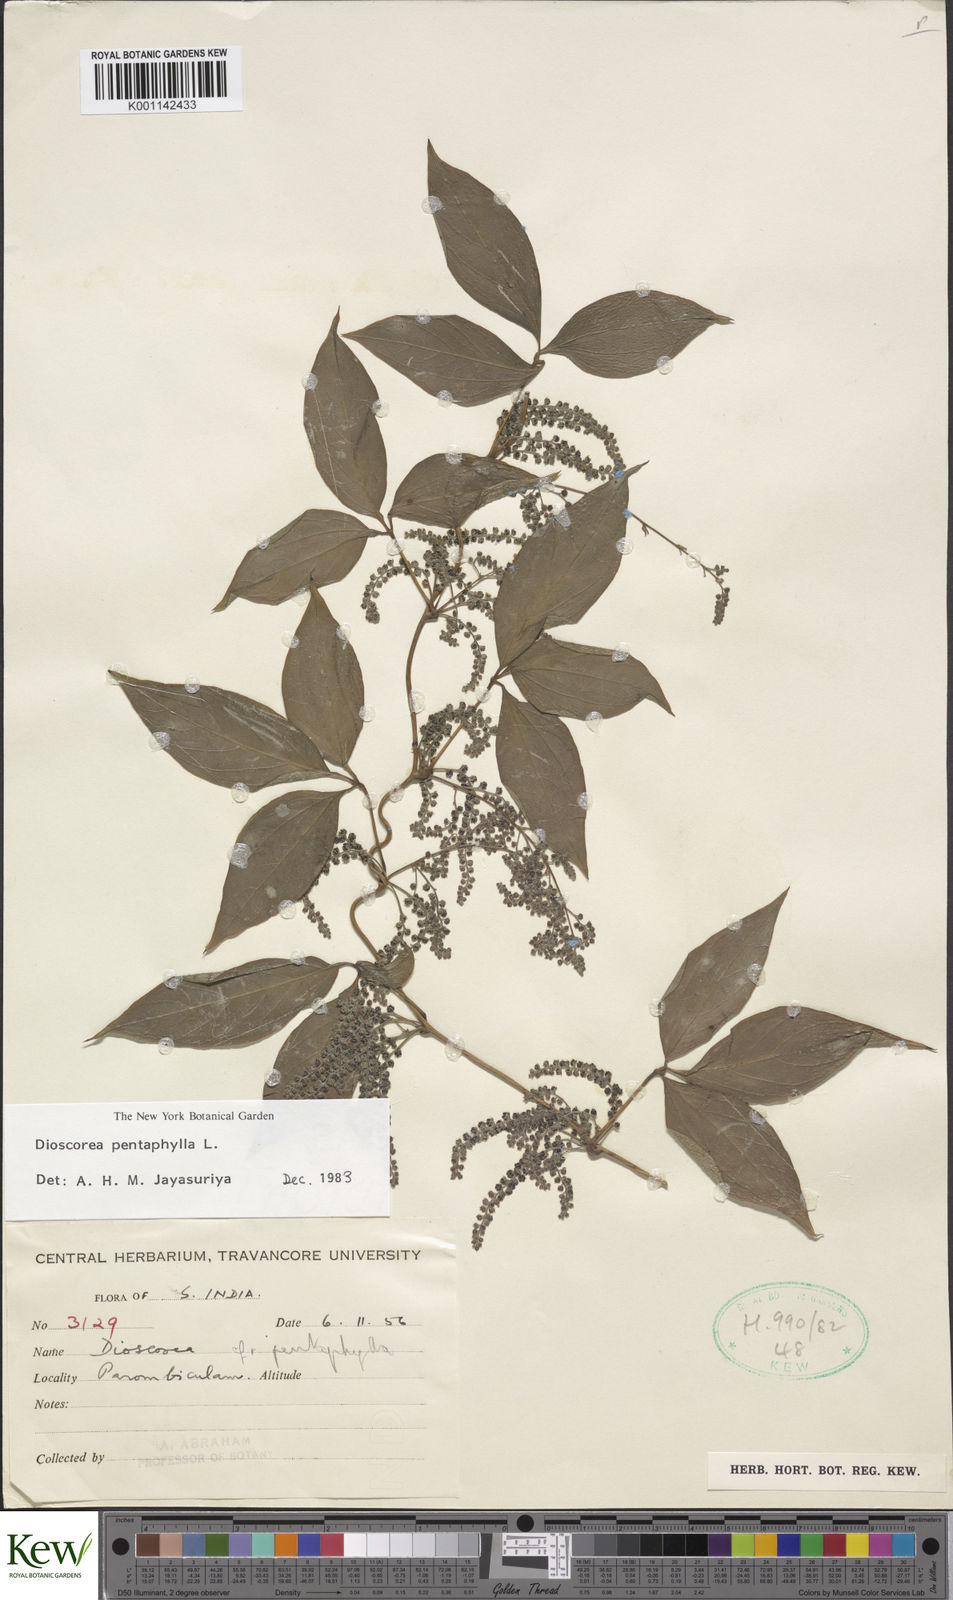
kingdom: Plantae
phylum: Tracheophyta
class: Liliopsida
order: Dioscoreales
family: Dioscoreaceae
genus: Dioscorea
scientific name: Dioscorea pentaphylla
